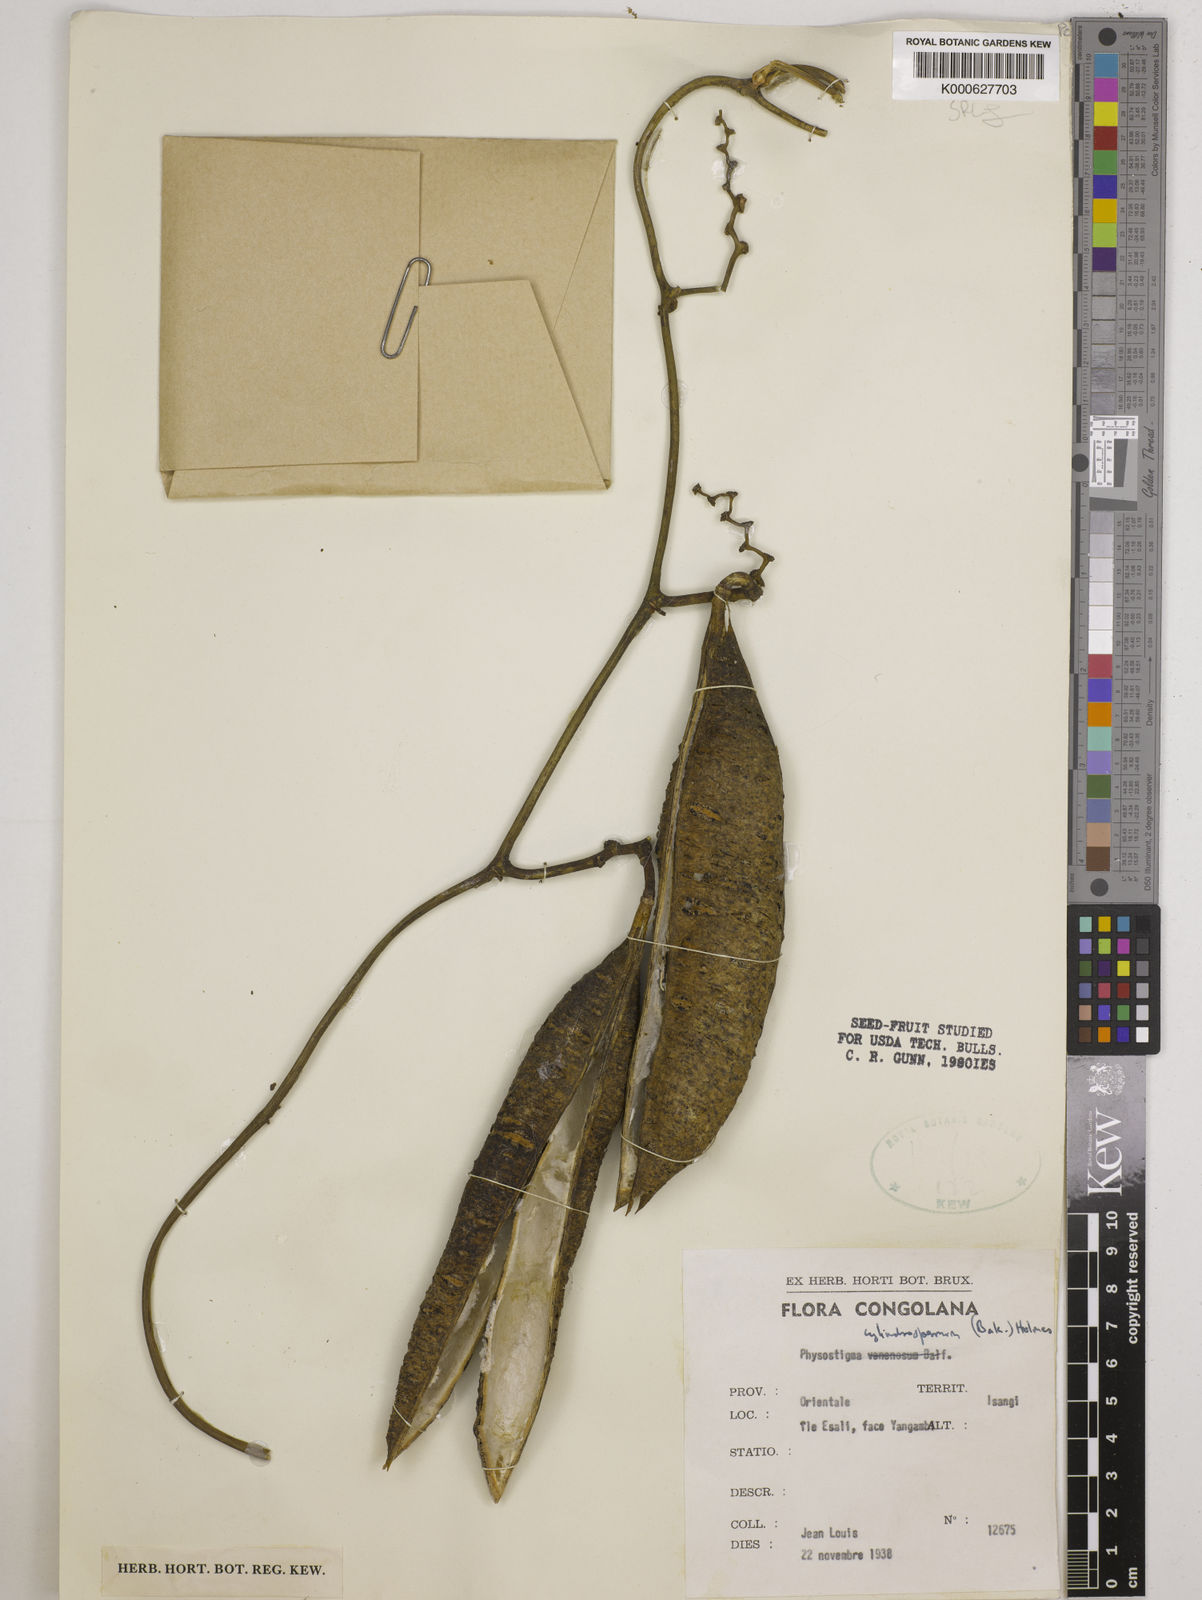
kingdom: Plantae
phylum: Tracheophyta
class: Magnoliopsida
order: Fabales
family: Fabaceae
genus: Physostigma
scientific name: Physostigma cylindrospermum
